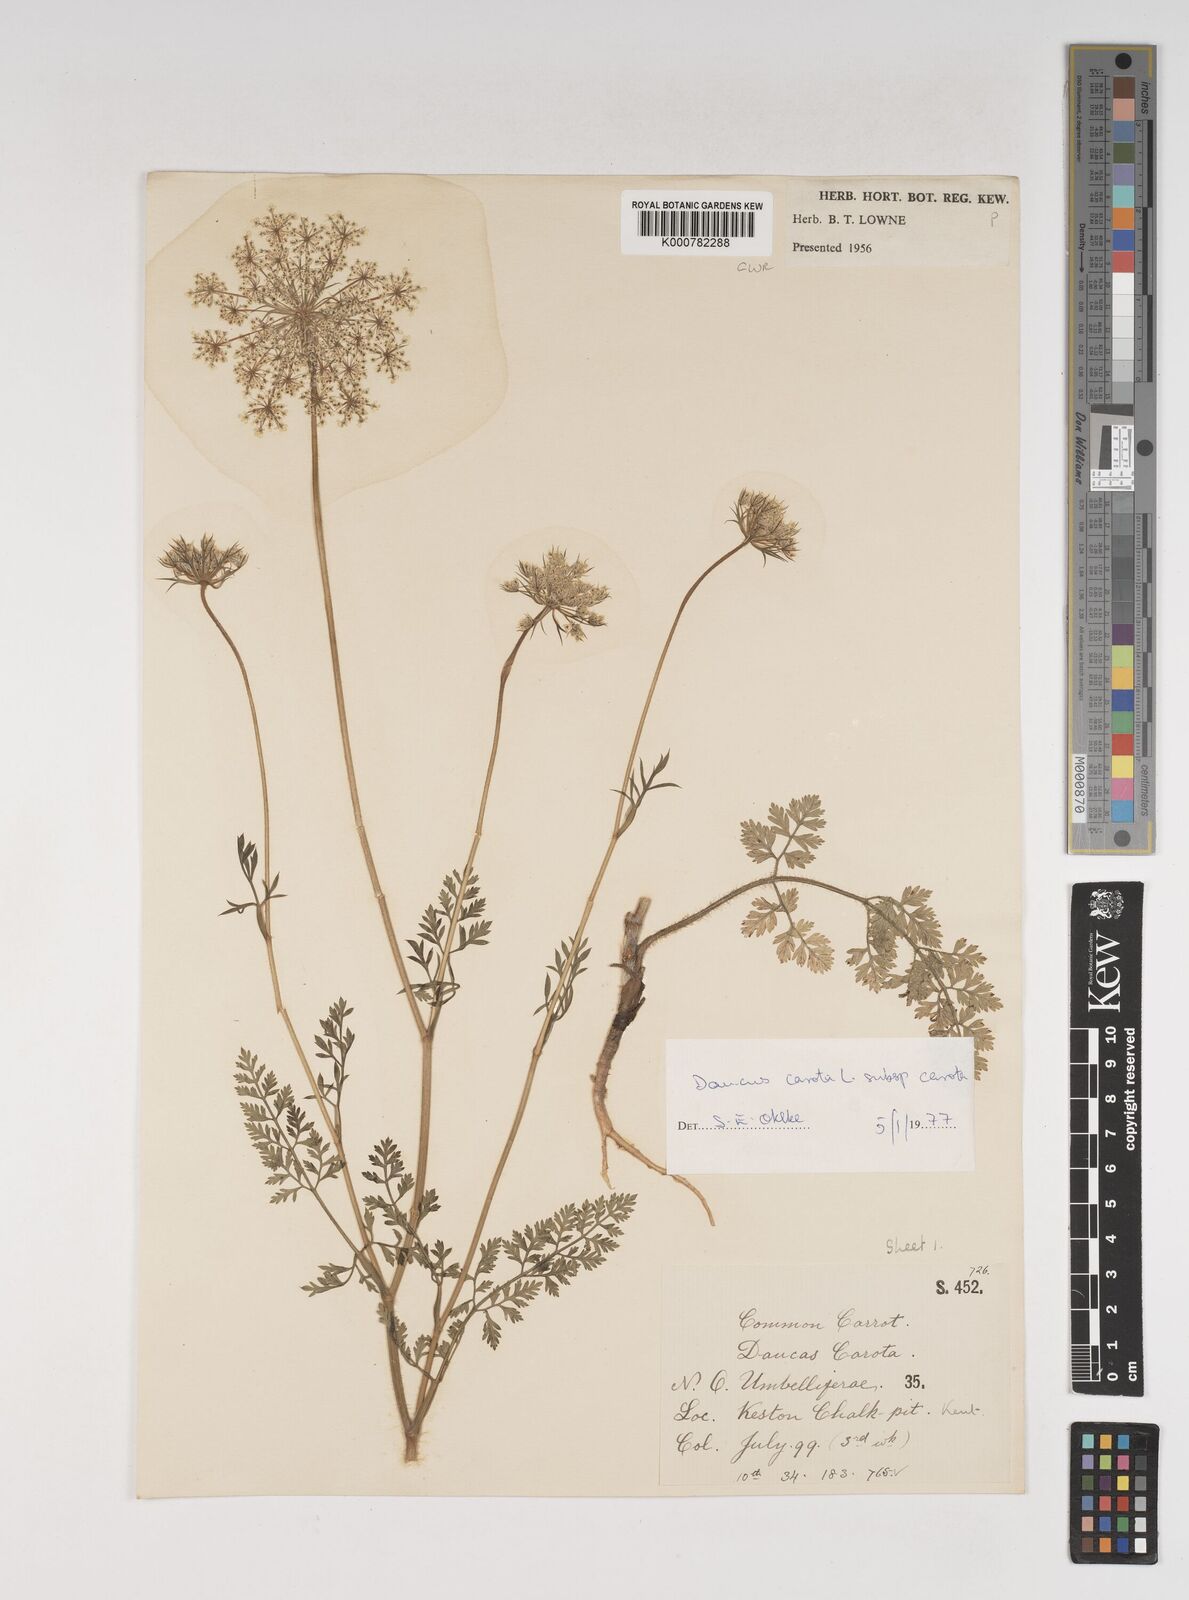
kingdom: Plantae
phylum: Tracheophyta
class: Magnoliopsida
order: Apiales
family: Apiaceae
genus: Daucus
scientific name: Daucus carota
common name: Wild carrot
